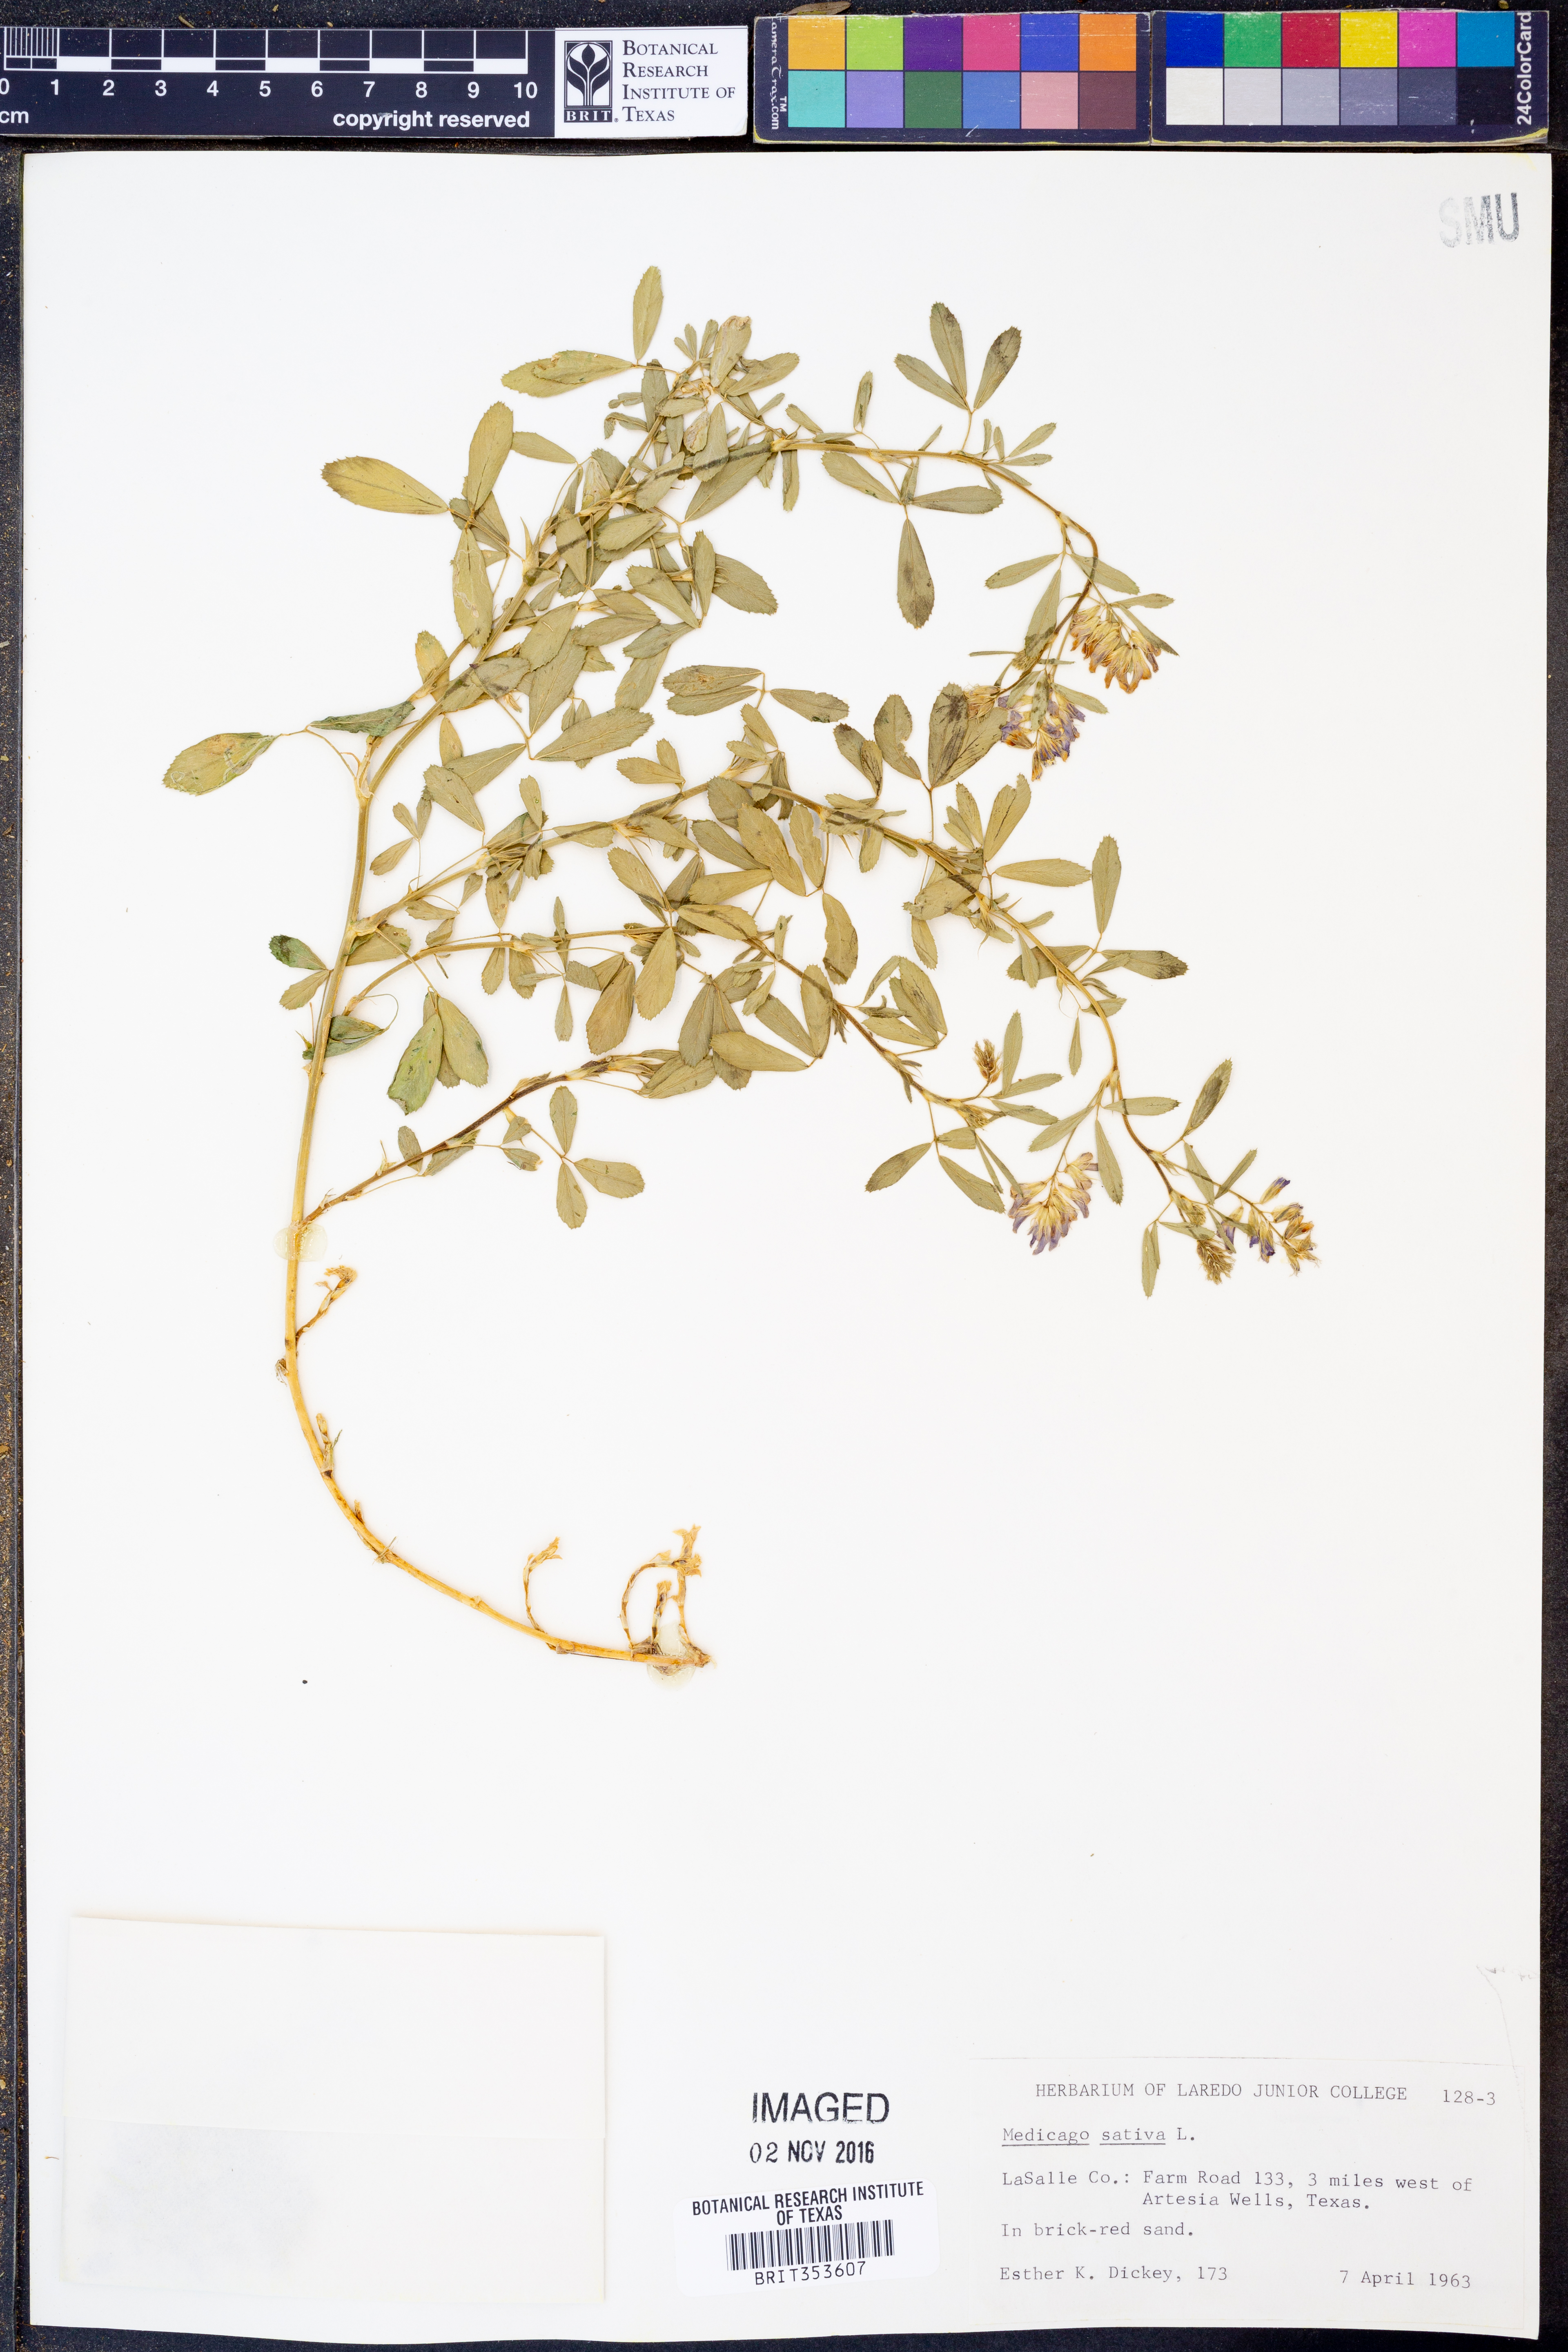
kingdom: Plantae
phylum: Tracheophyta
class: Magnoliopsida
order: Fabales
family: Fabaceae
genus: Medicago
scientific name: Medicago sativa
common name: Alfalfa
